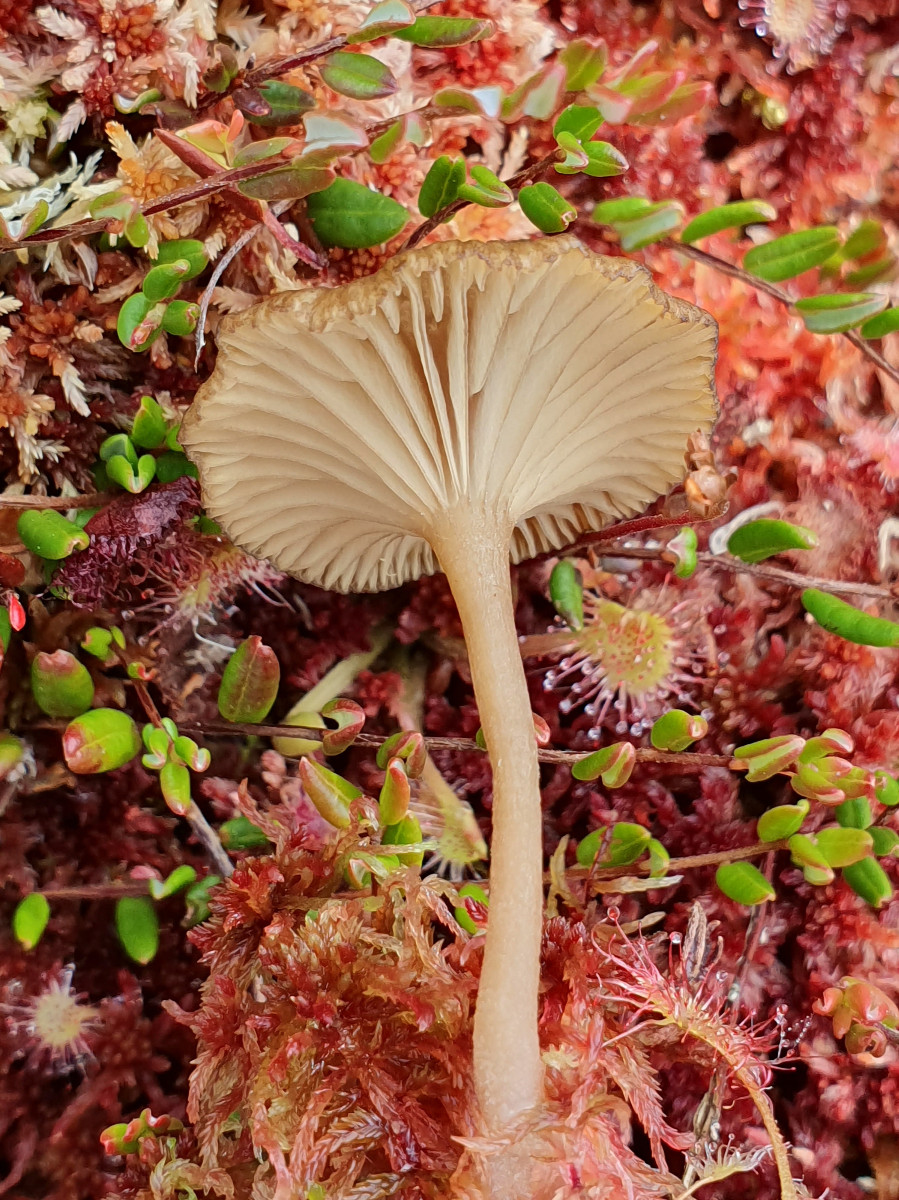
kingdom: Fungi
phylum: Basidiomycota
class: Agaricomycetes
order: Agaricales
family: Hygrophoraceae
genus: Arrhenia
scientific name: Arrhenia gerardiana
